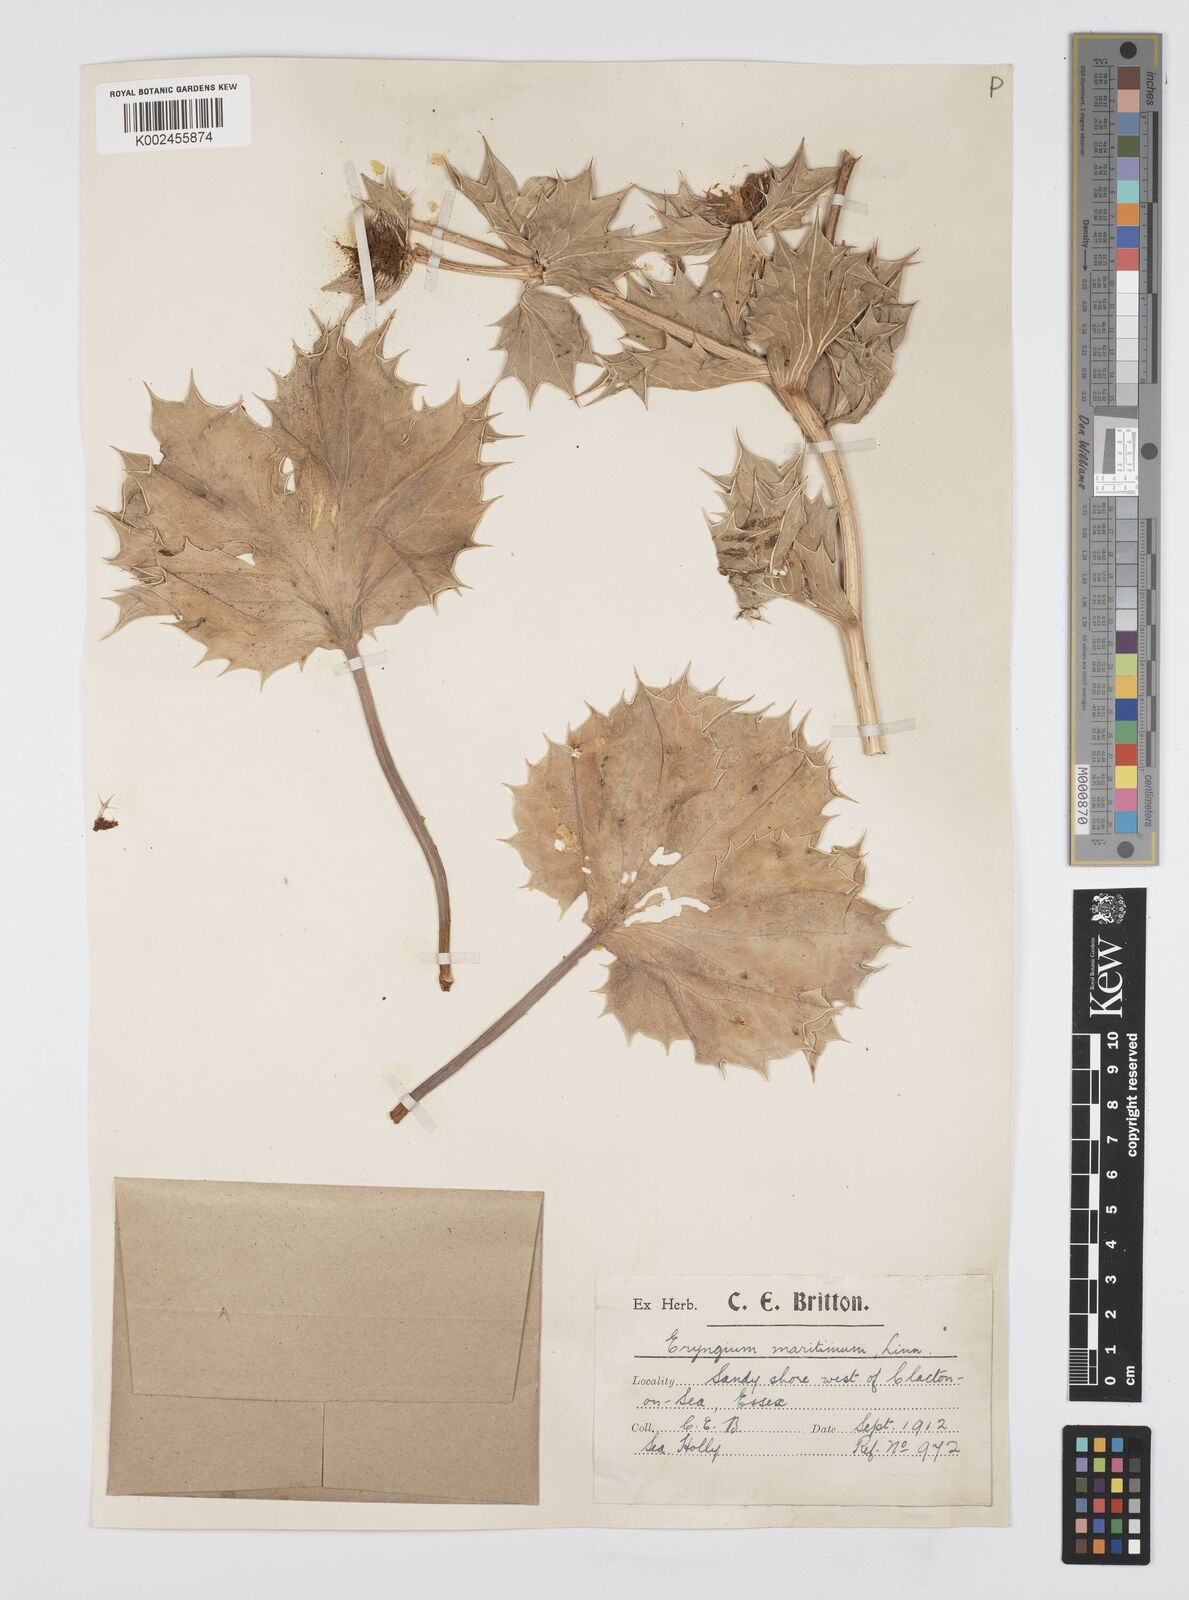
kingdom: Plantae
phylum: Tracheophyta
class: Magnoliopsida
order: Apiales
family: Apiaceae
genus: Eryngium
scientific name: Eryngium maritimum
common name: Sea-holly
